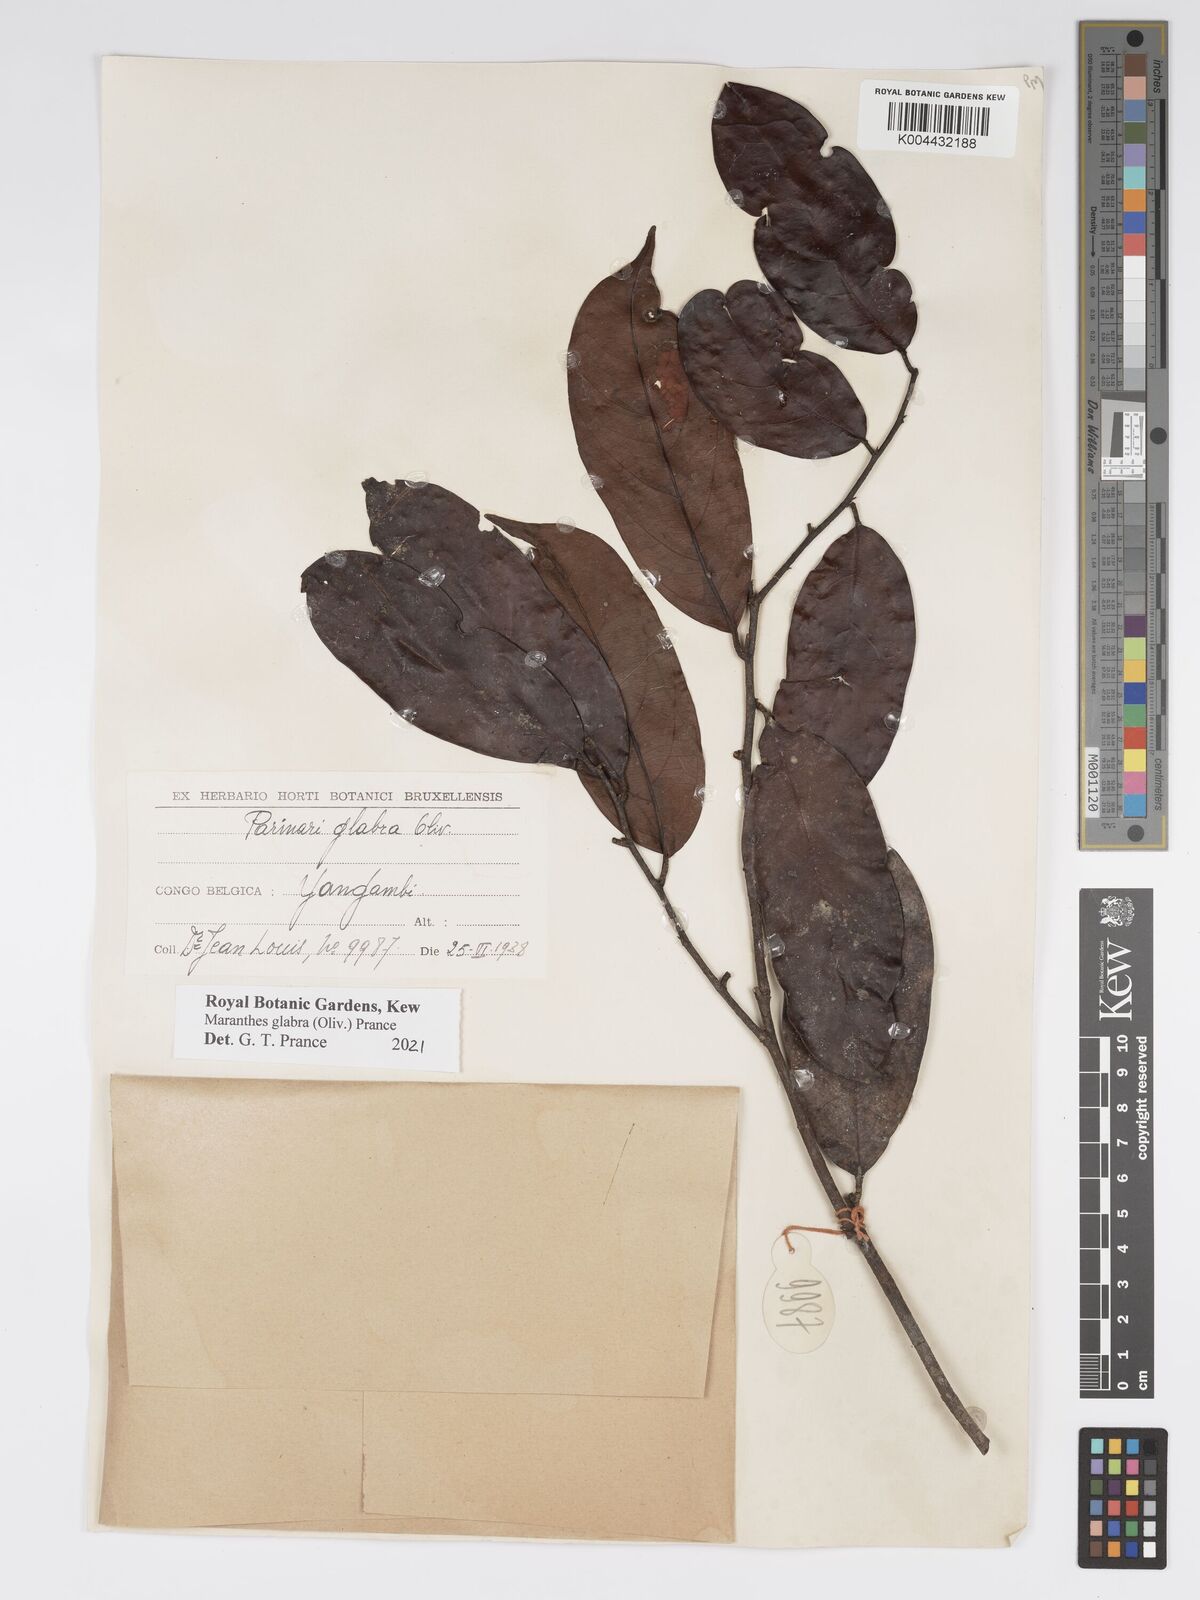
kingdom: Plantae
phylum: Tracheophyta
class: Magnoliopsida
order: Malpighiales
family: Chrysobalanaceae
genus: Maranthes
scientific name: Maranthes glabra
